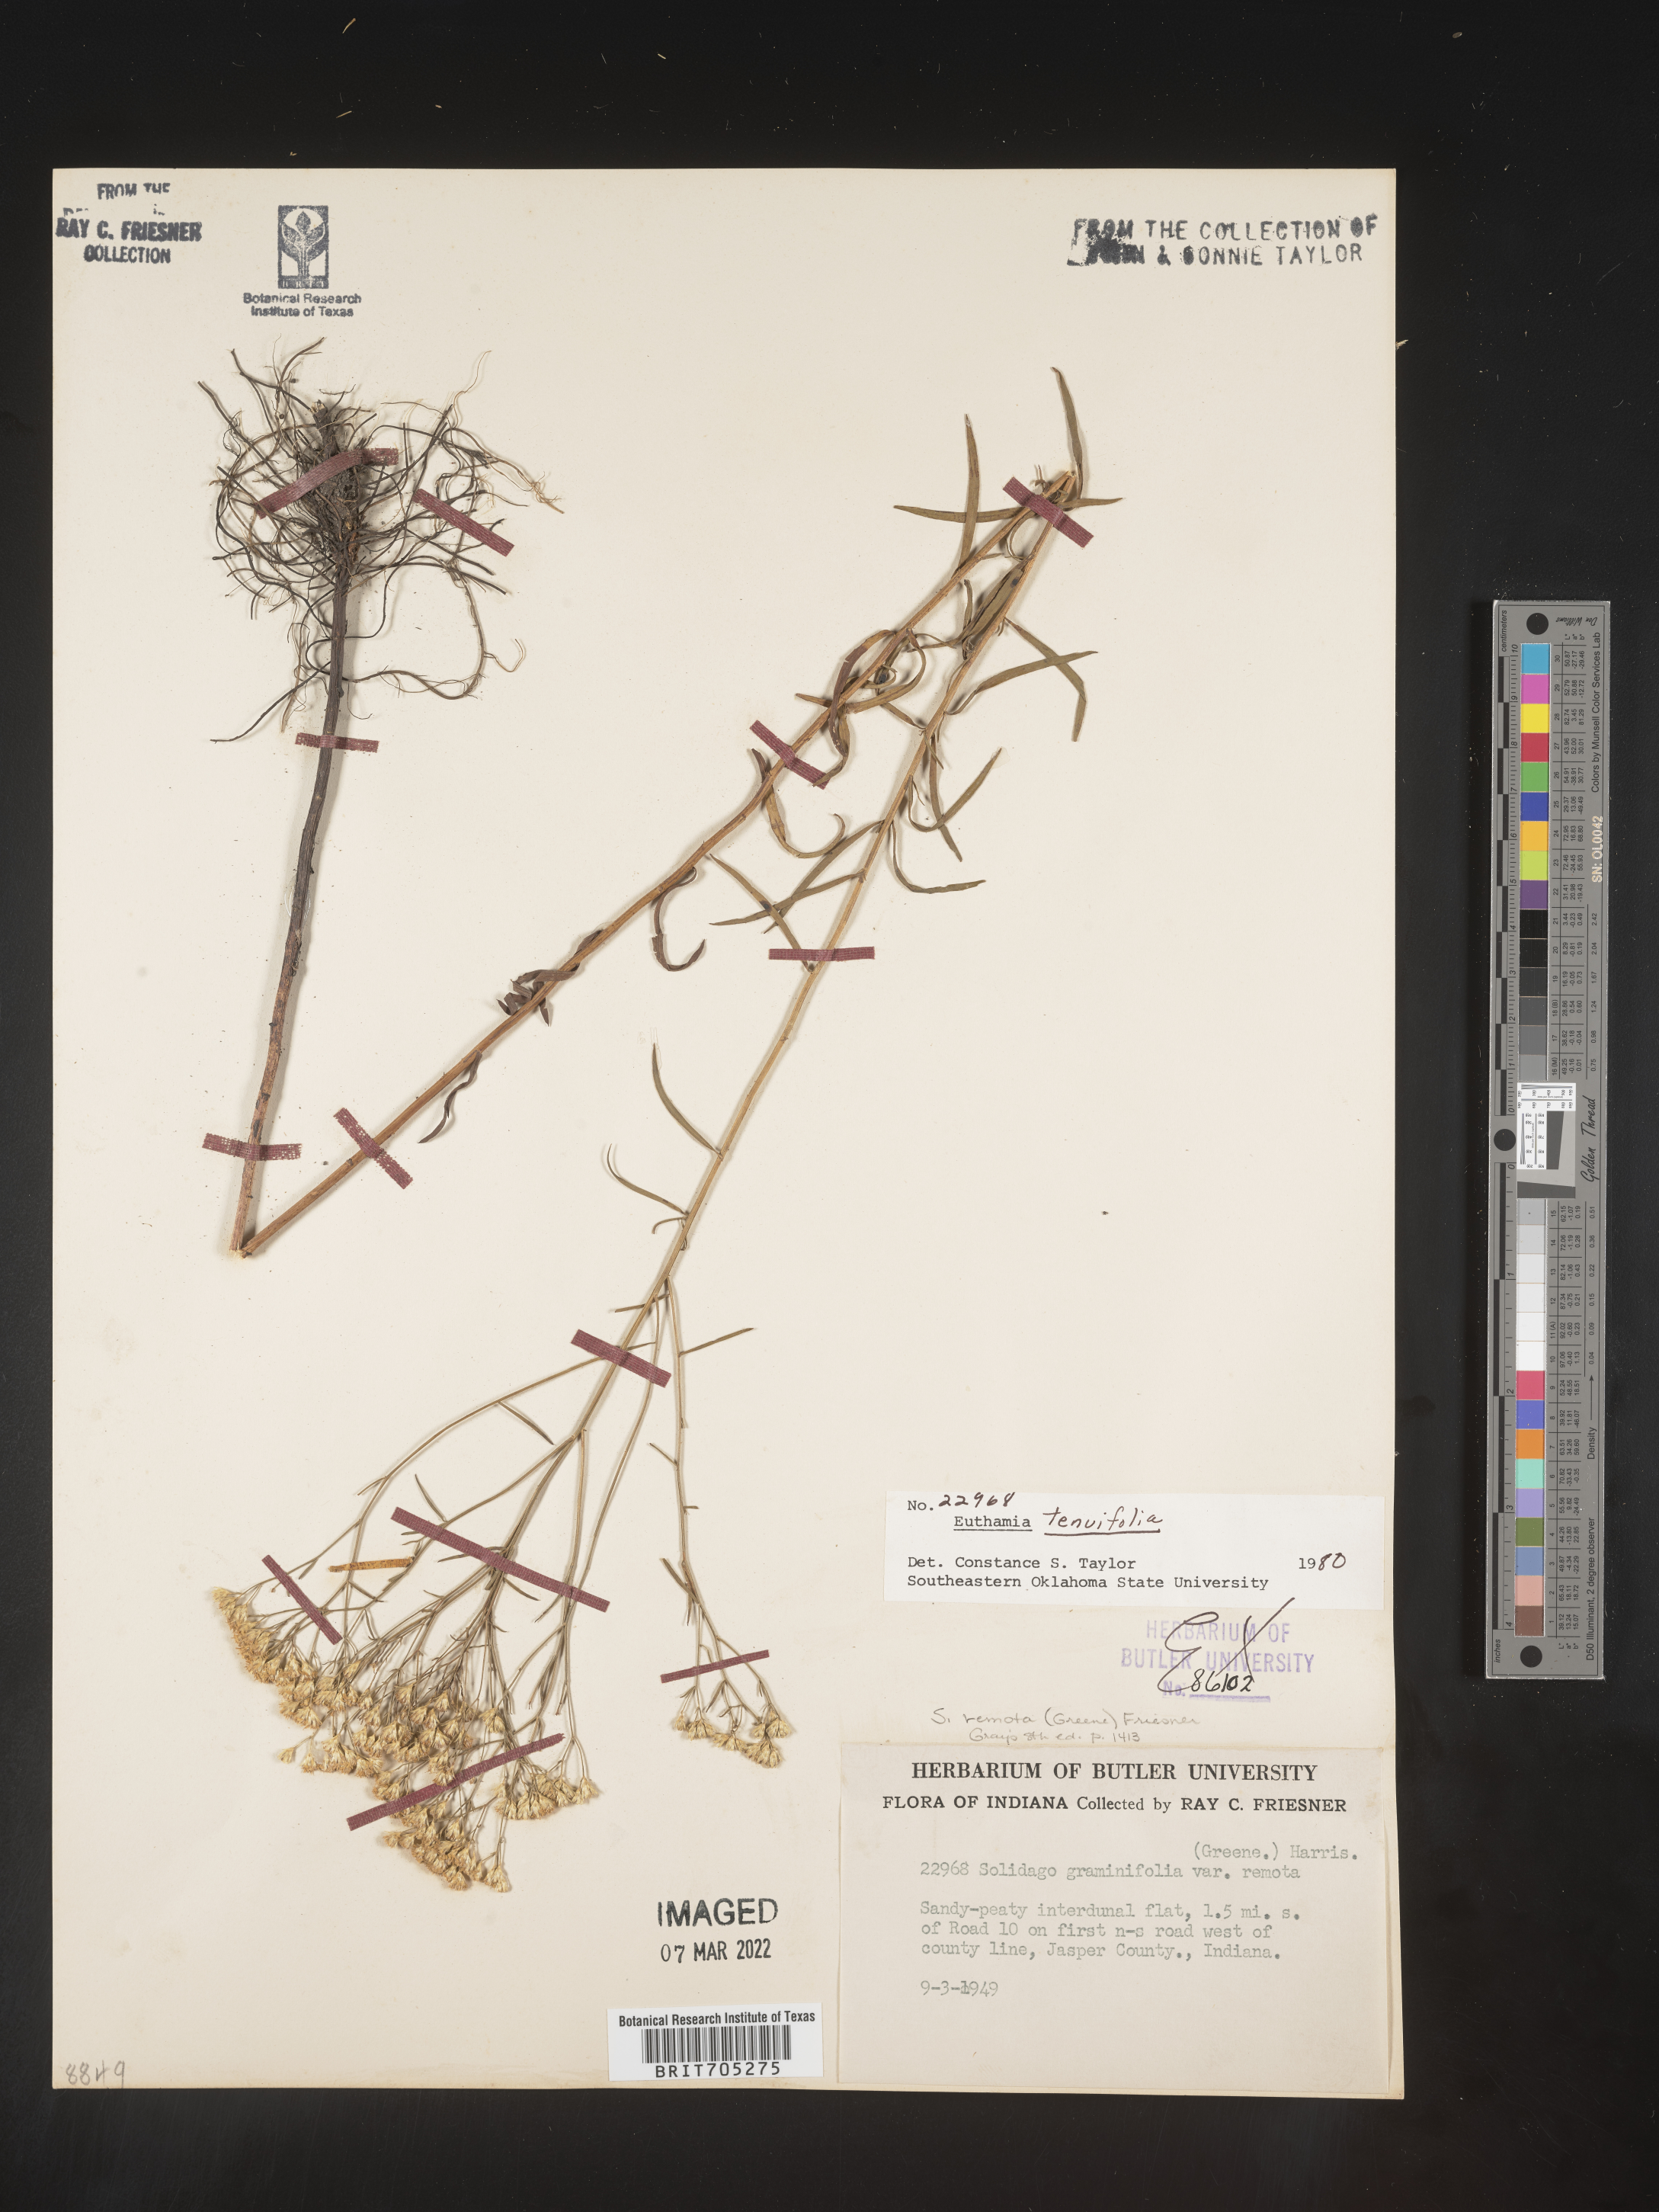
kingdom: Plantae
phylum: Tracheophyta
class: Magnoliopsida
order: Asterales
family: Asteraceae
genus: Euthamia
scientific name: Euthamia gymnospermoides
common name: Great plains goldentop
